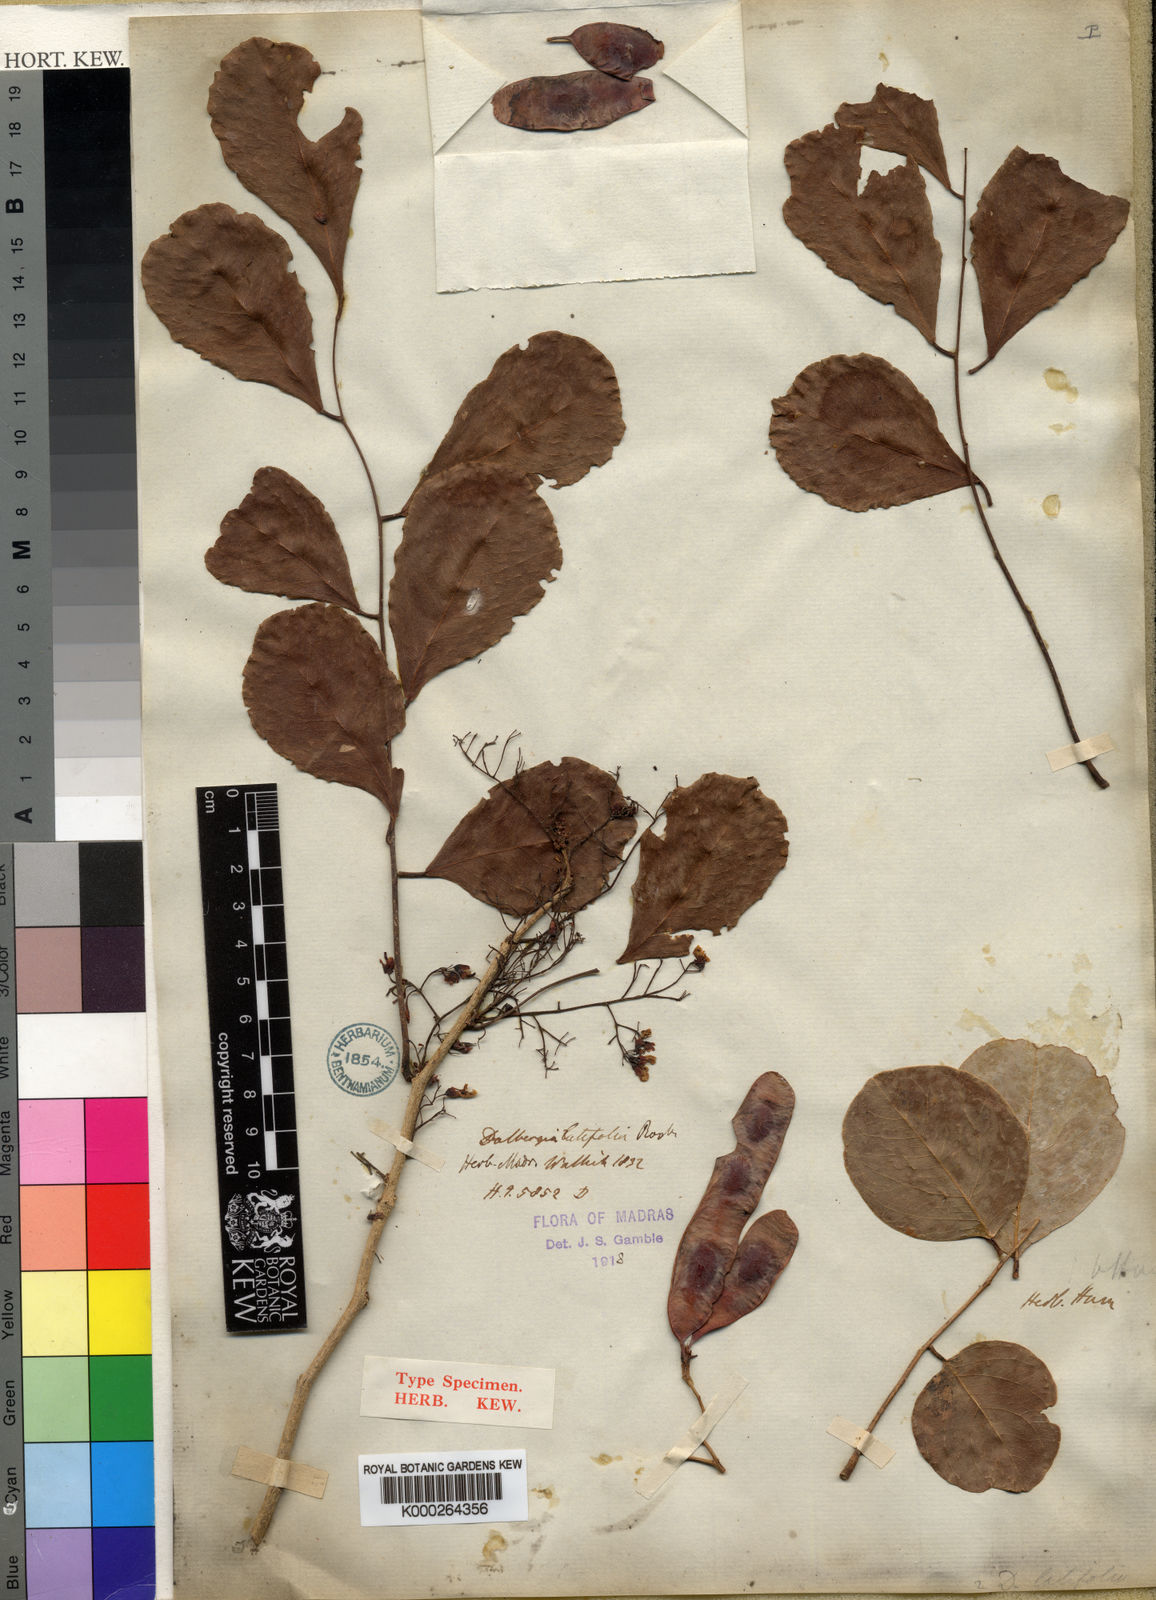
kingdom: Plantae
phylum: Tracheophyta
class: Magnoliopsida
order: Fabales
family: Fabaceae
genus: Dalbergia
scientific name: Dalbergia latifolia
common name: Bombay blackwood
